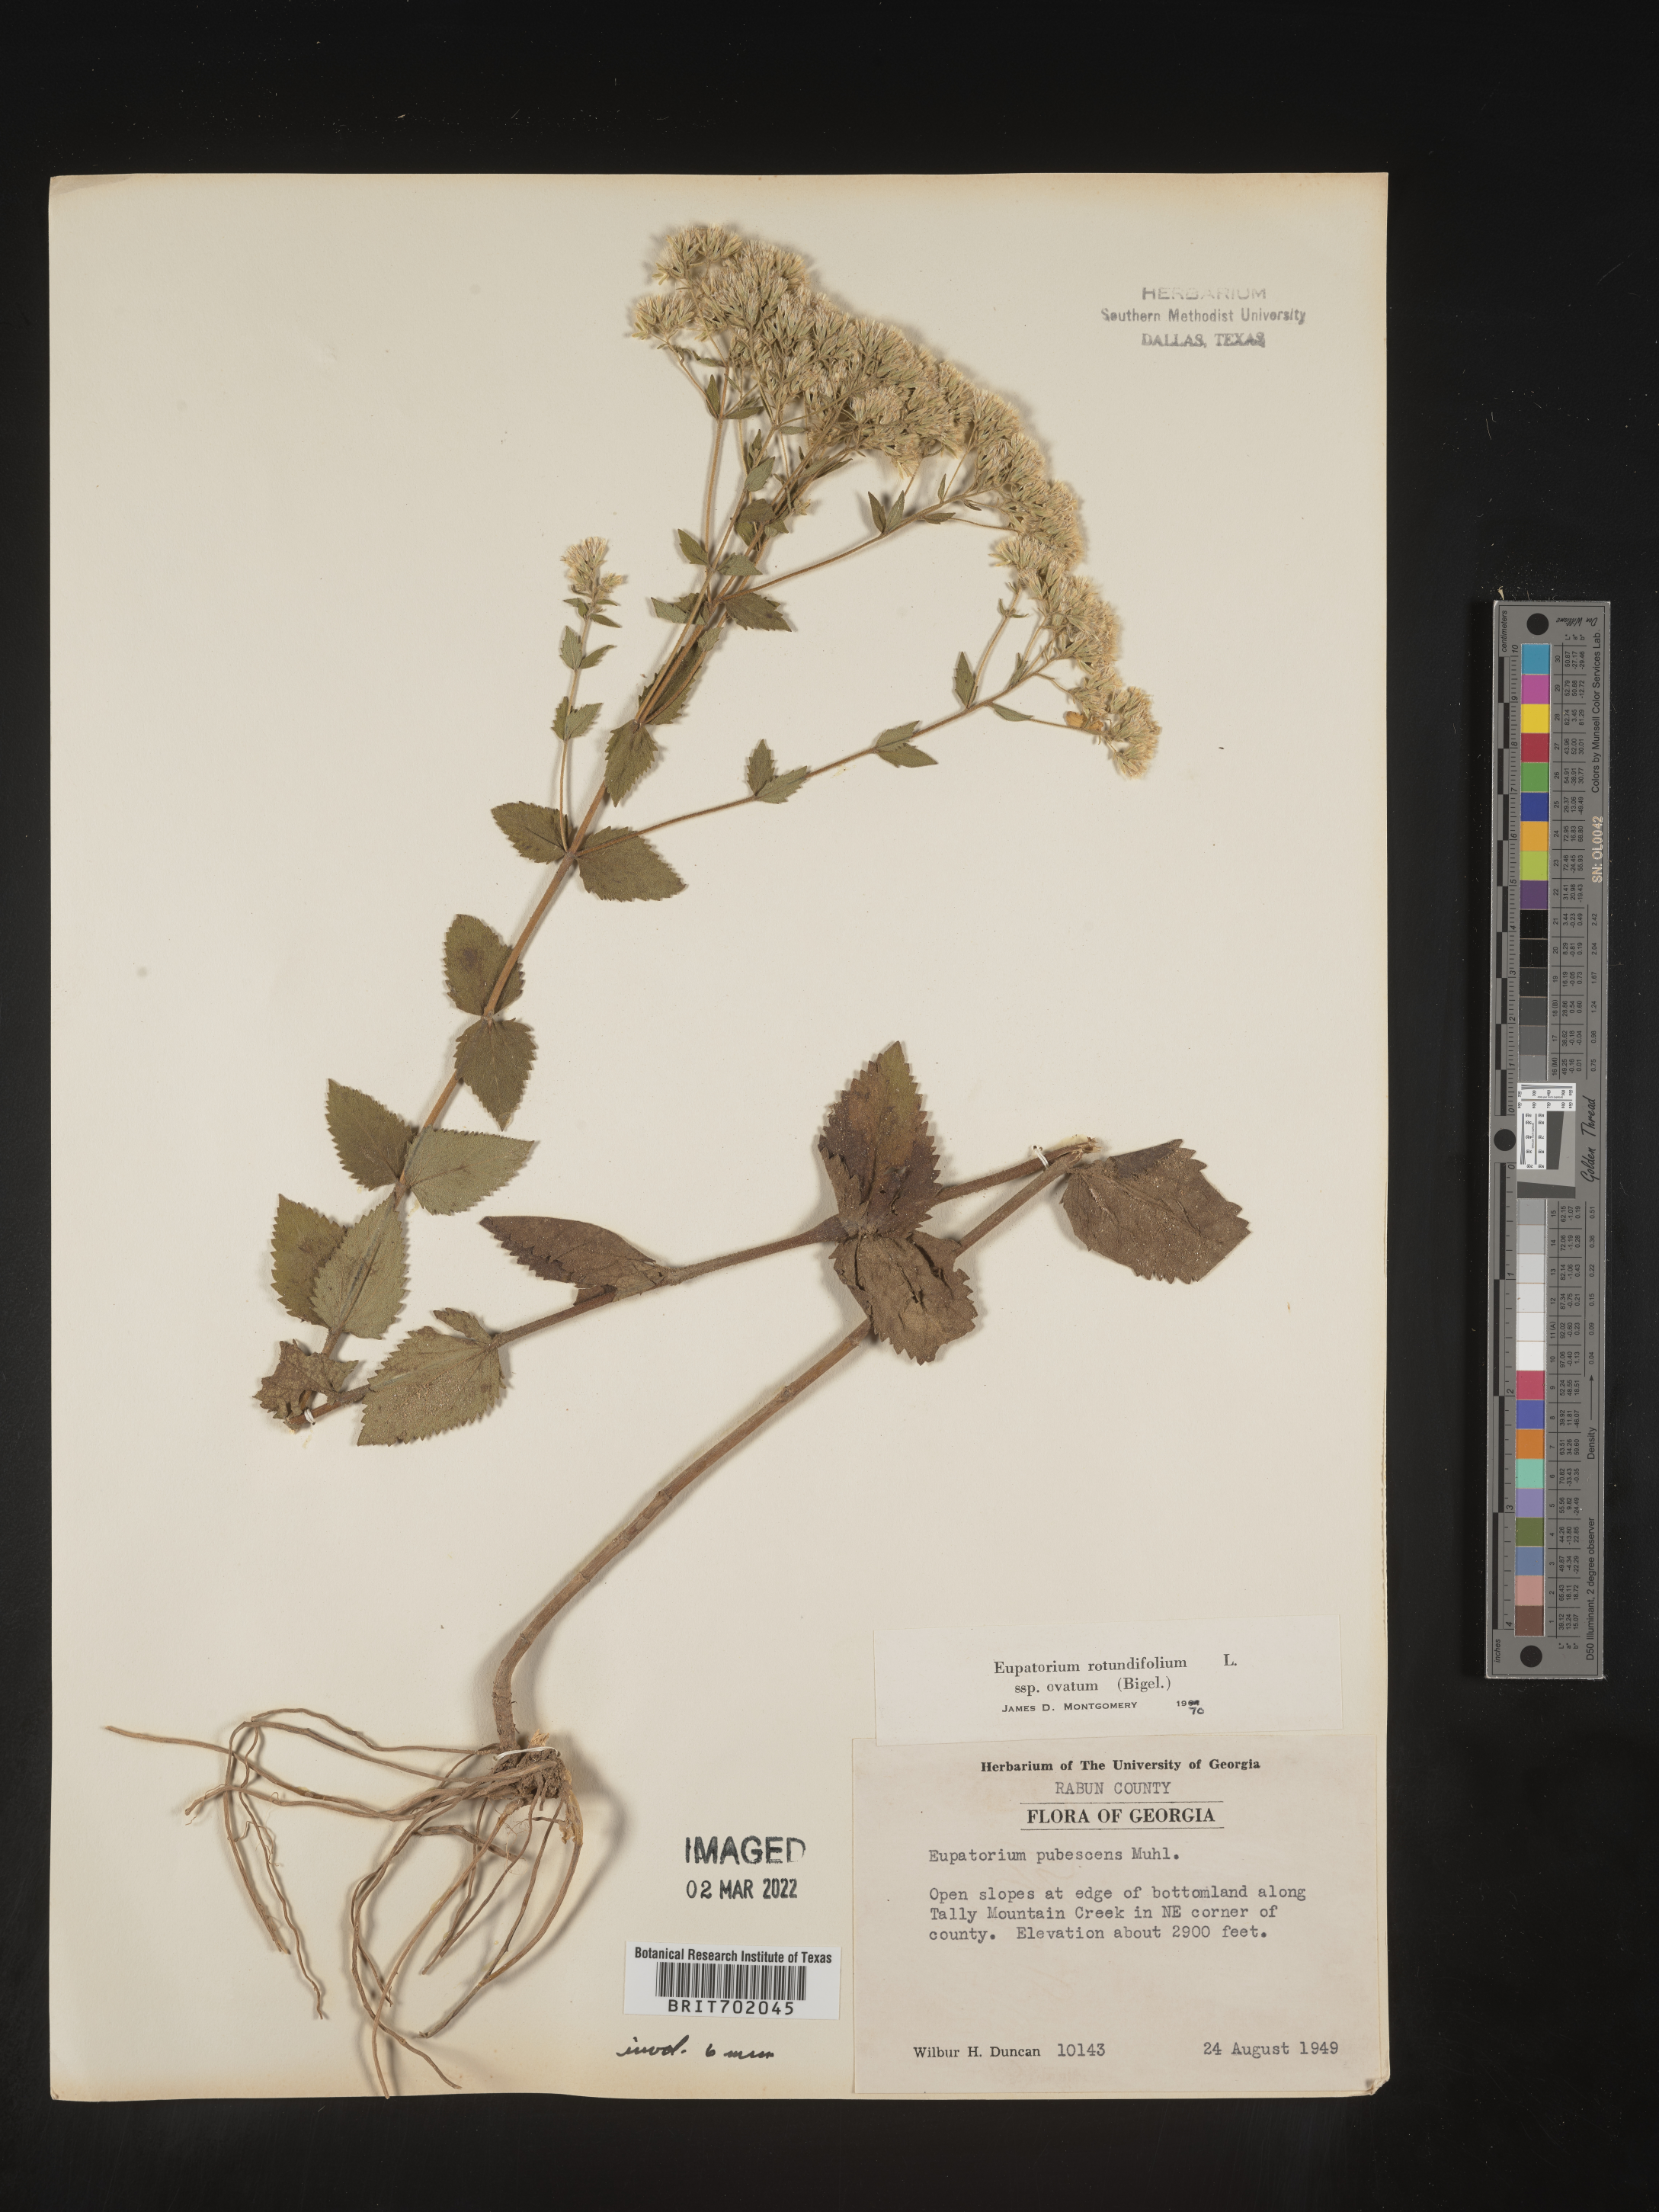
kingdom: Plantae
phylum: Tracheophyta
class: Magnoliopsida
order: Asterales
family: Asteraceae
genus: Eupatorium
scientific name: Eupatorium rotundifolium
